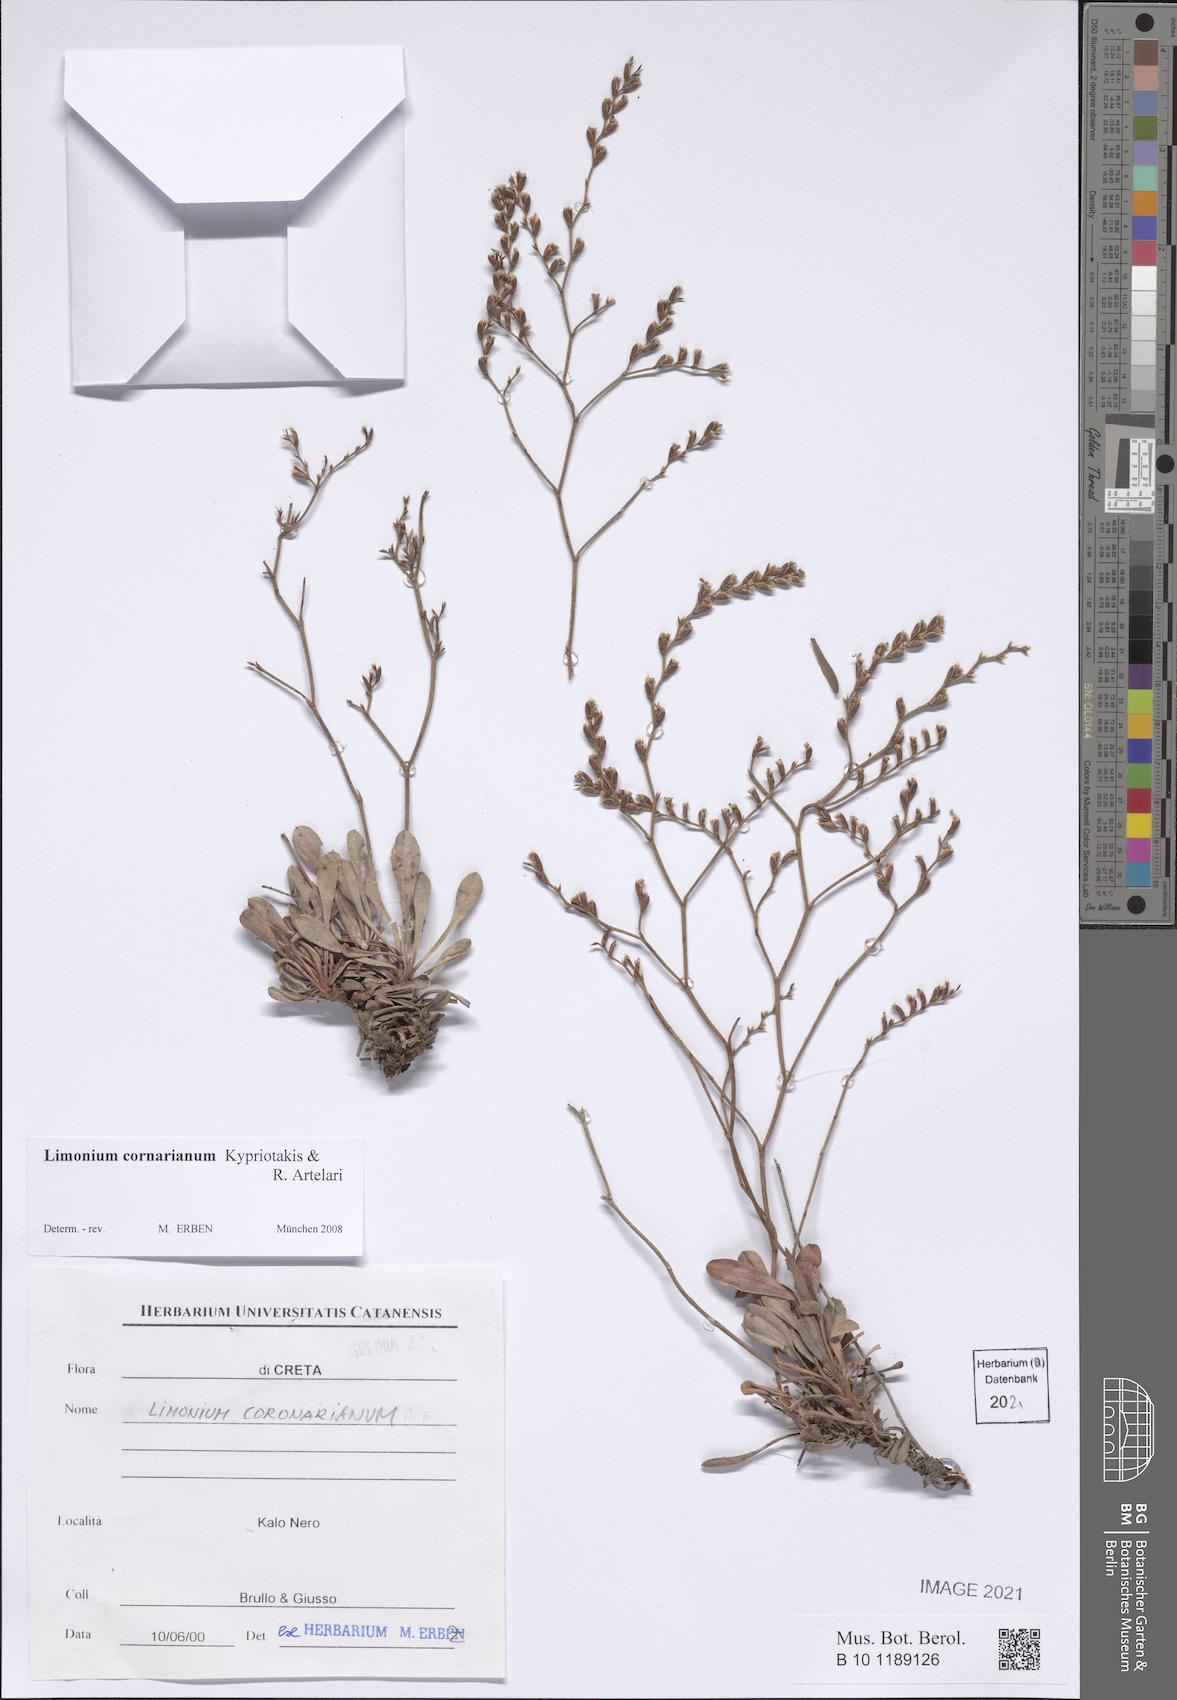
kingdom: Plantae
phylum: Tracheophyta
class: Magnoliopsida
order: Caryophyllales
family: Plumbaginaceae
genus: Limonium
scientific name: Limonium cornarianum
